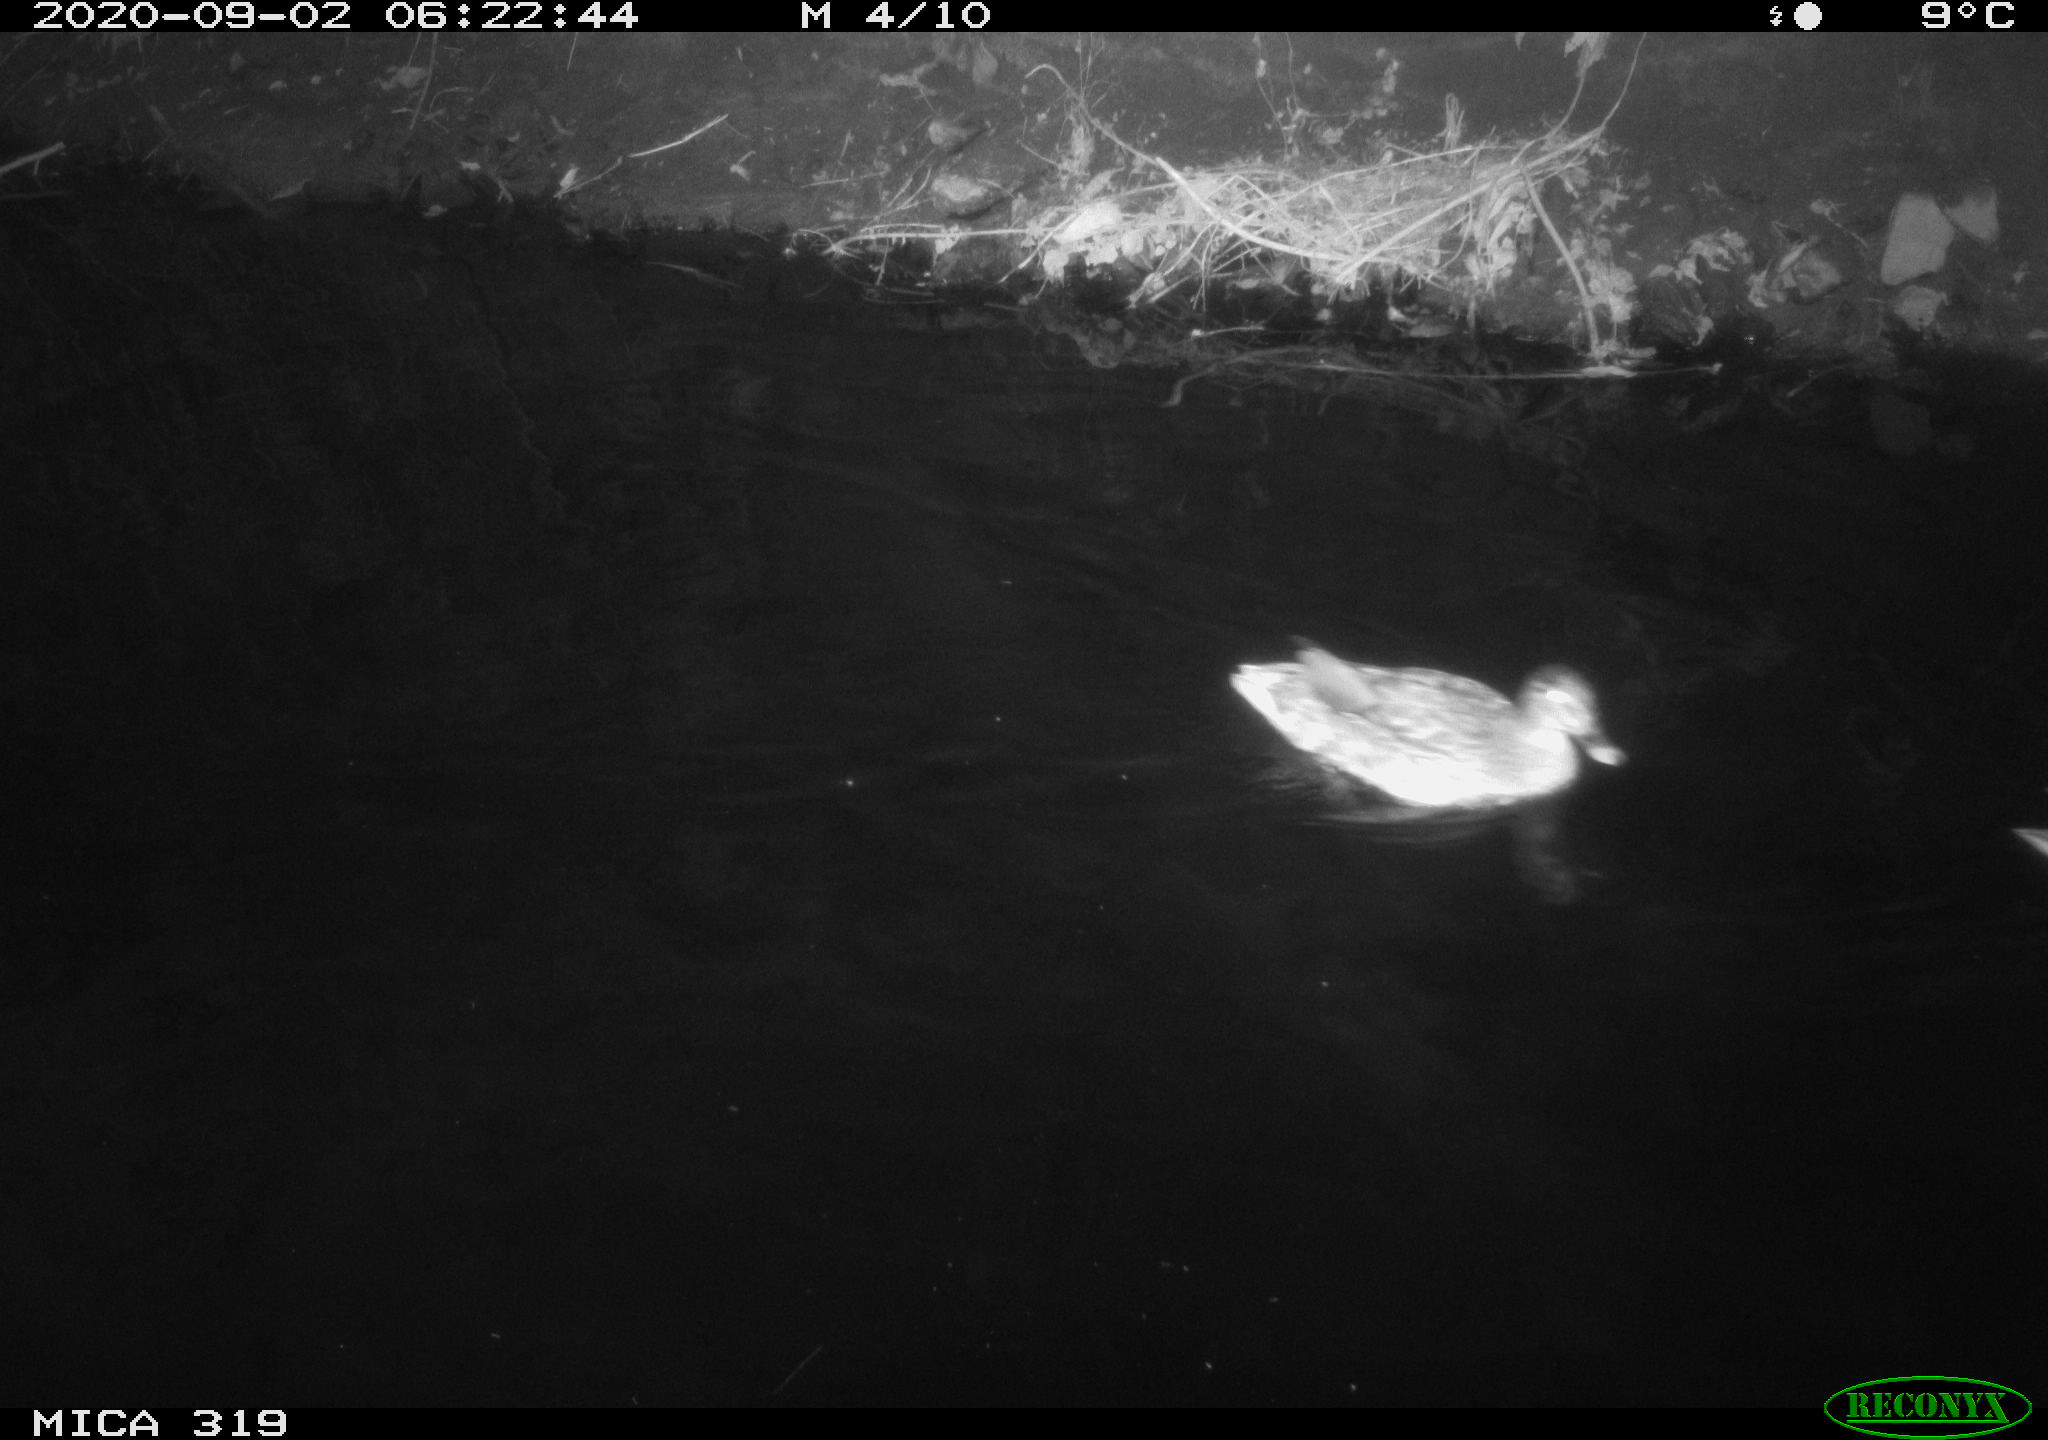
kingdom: Animalia
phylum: Chordata
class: Aves
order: Anseriformes
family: Anatidae
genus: Anas
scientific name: Anas platyrhynchos
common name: Mallard
